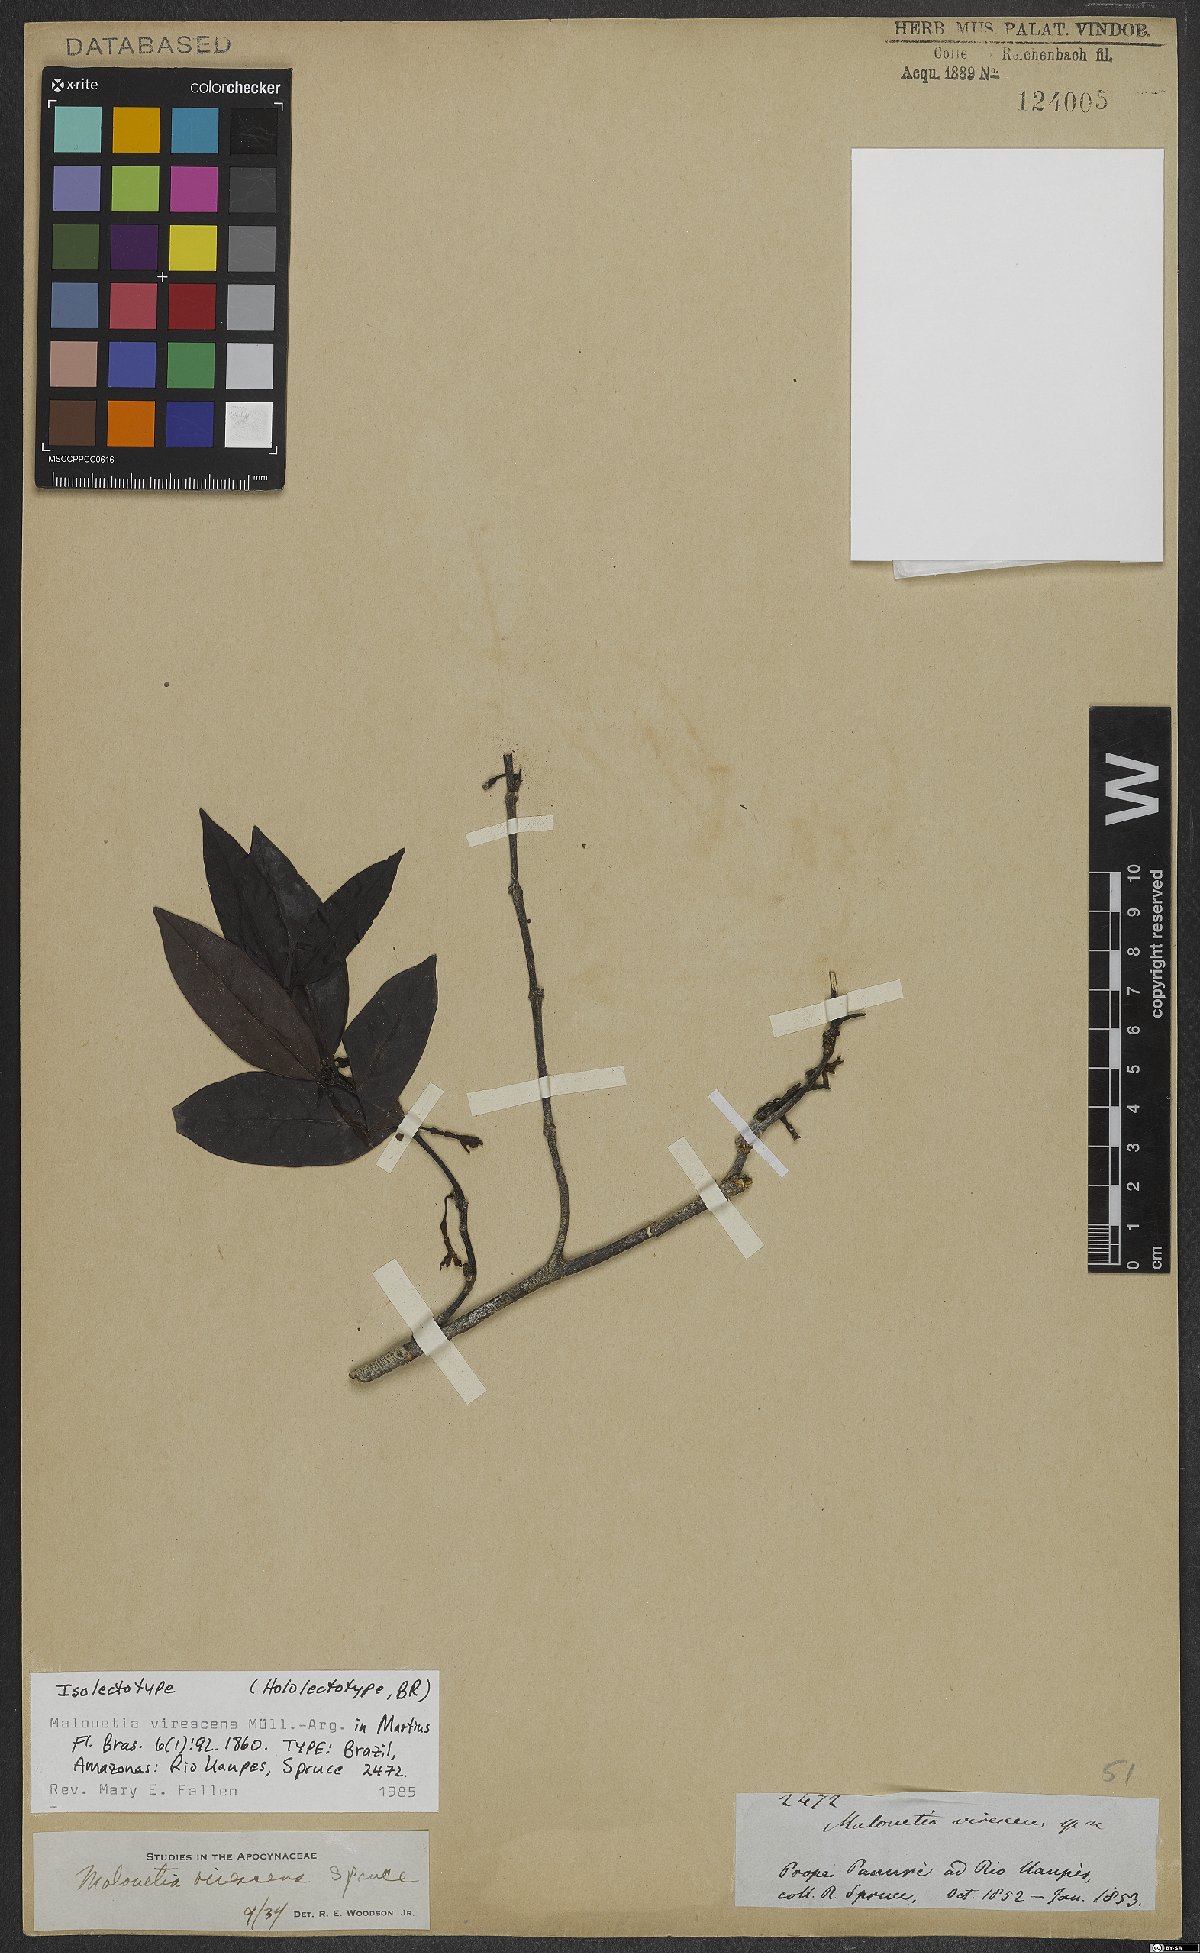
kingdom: Plantae
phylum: Tracheophyta
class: Magnoliopsida
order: Gentianales
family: Apocynaceae
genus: Malouetia
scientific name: Malouetia virescens
